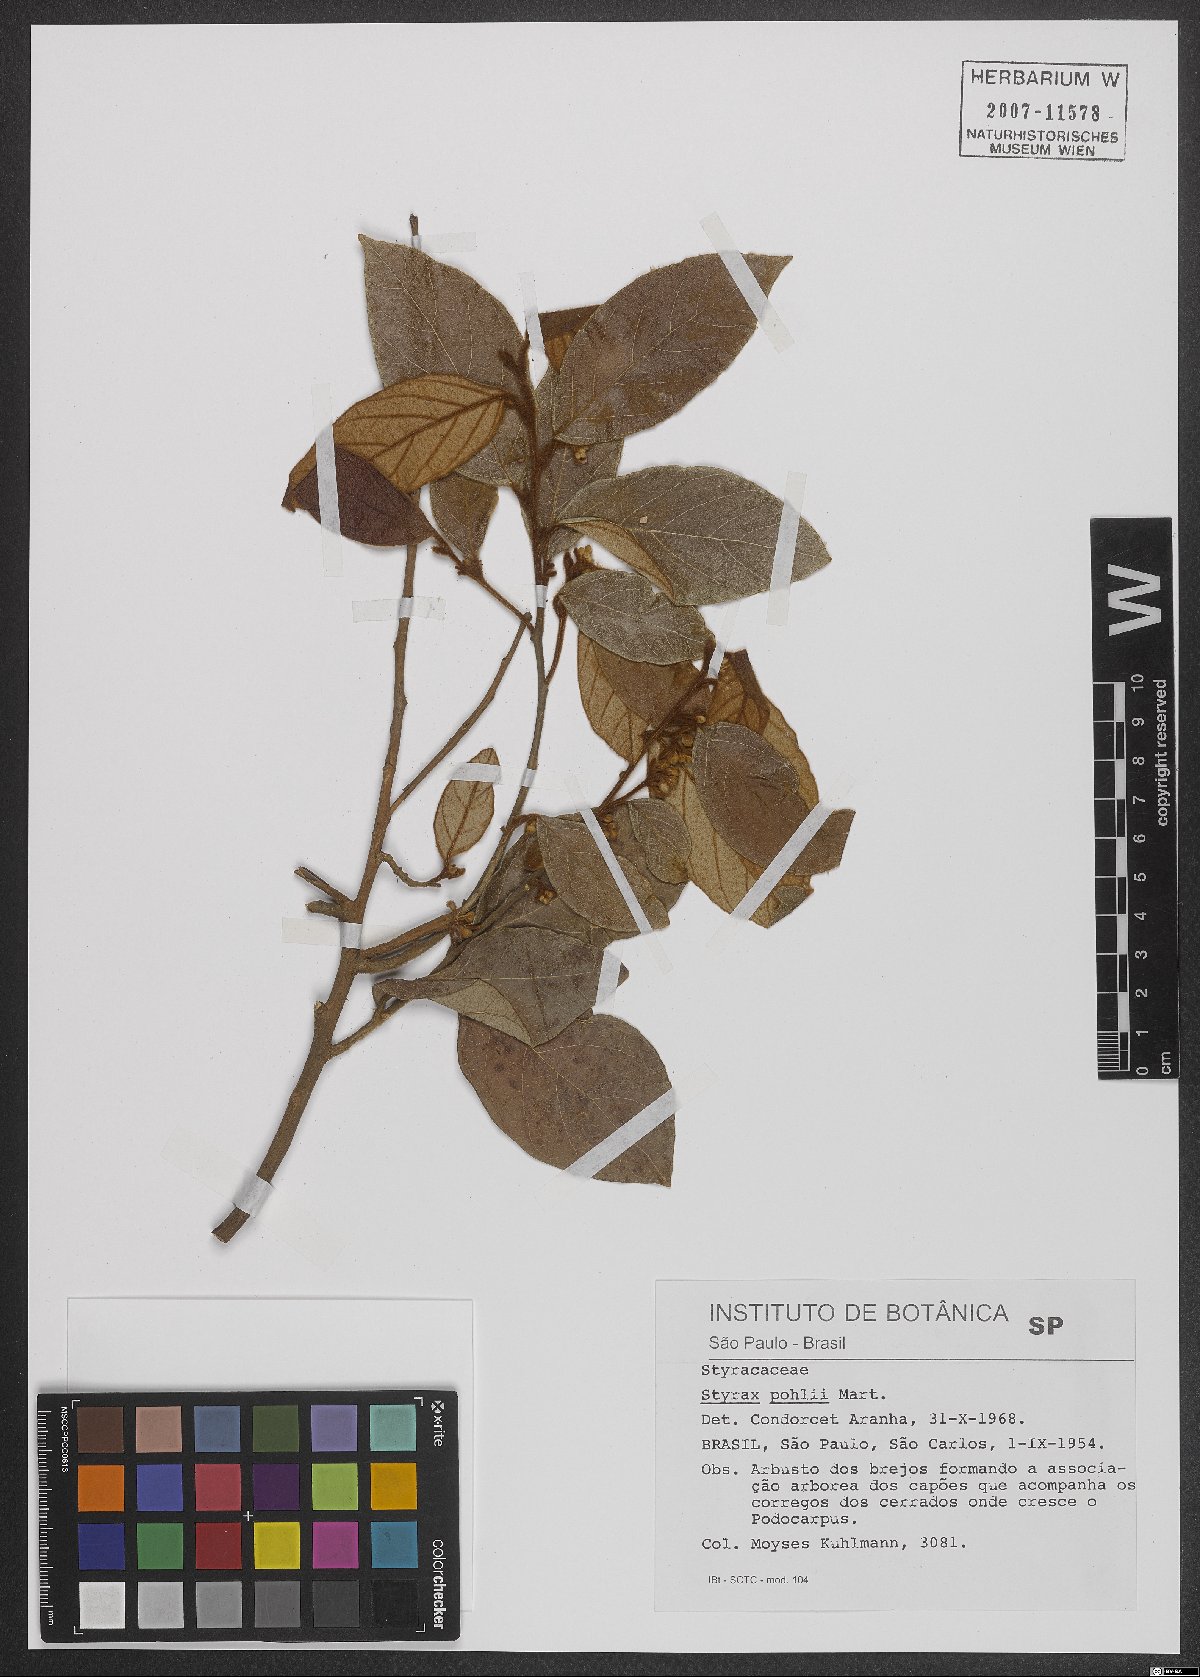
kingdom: Plantae
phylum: Tracheophyta
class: Magnoliopsida
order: Ericales
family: Styracaceae
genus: Styrax
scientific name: Styrax pohlii
